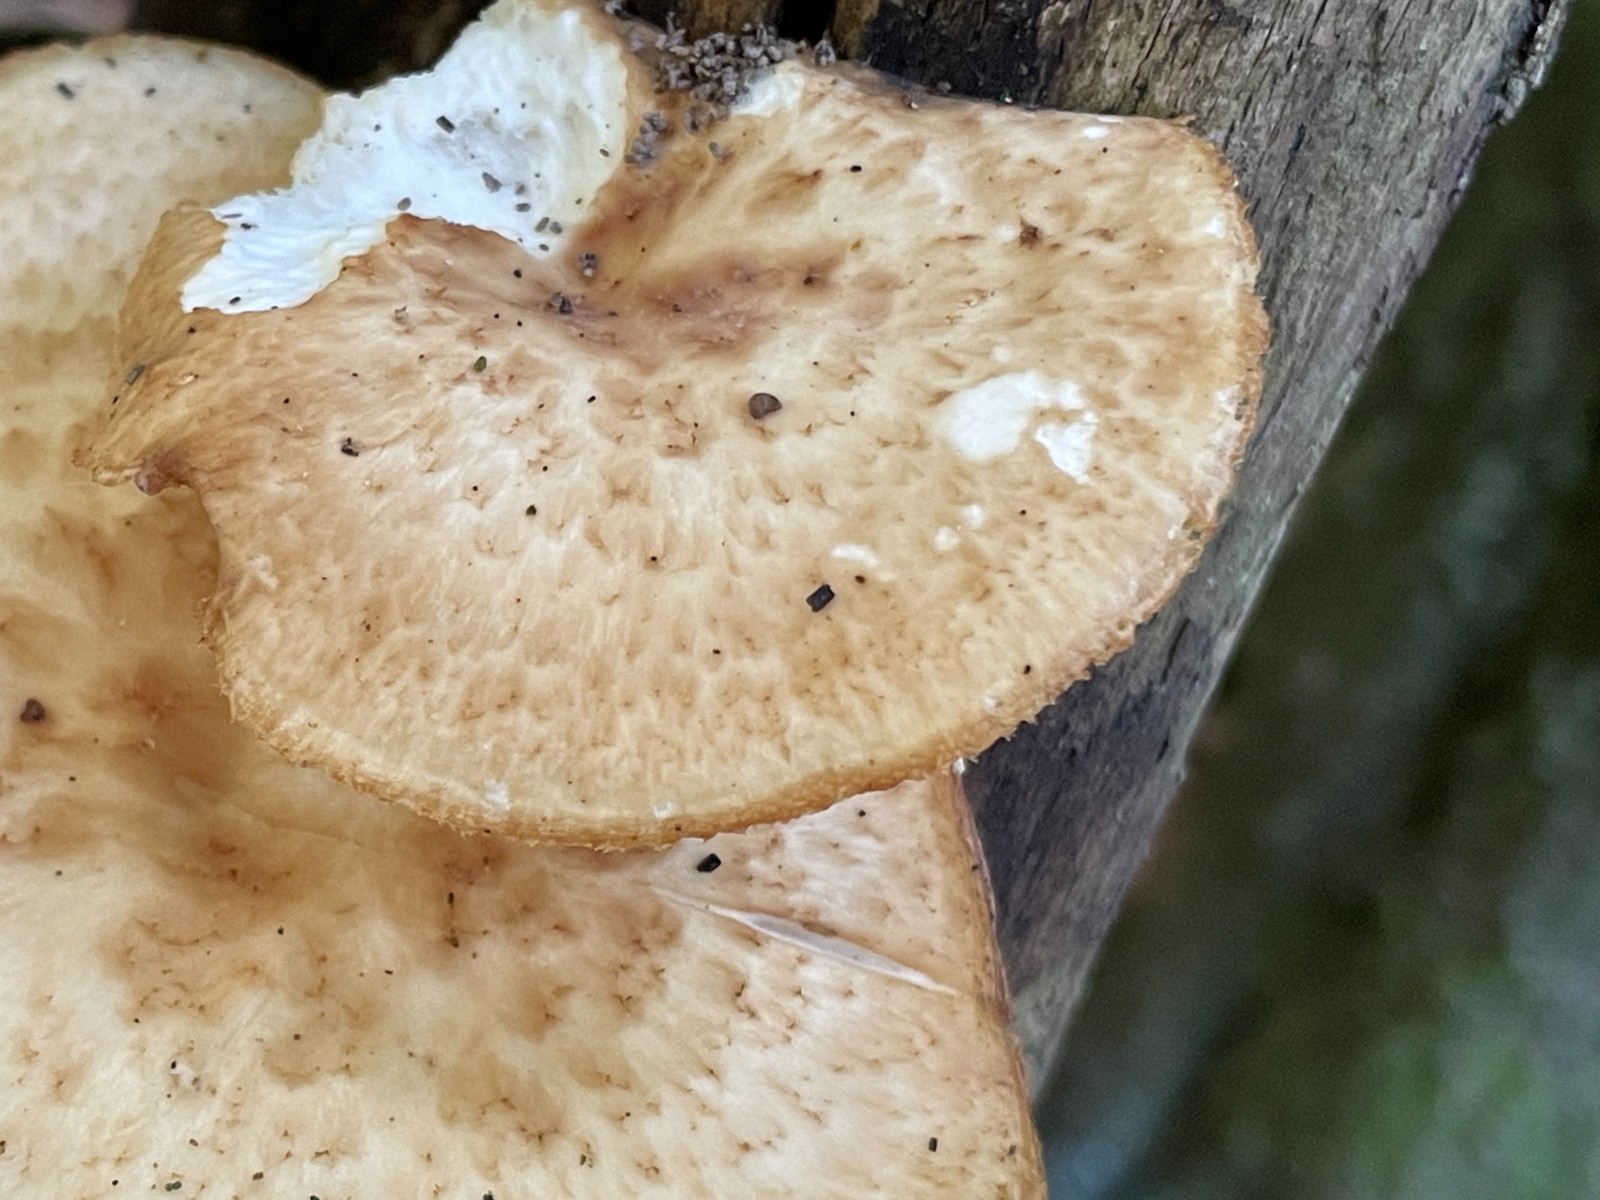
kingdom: Fungi
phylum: Basidiomycota
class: Agaricomycetes
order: Polyporales
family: Polyporaceae
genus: Polyporus
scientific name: Polyporus tuberaster
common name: knoldet stilkporesvamp
